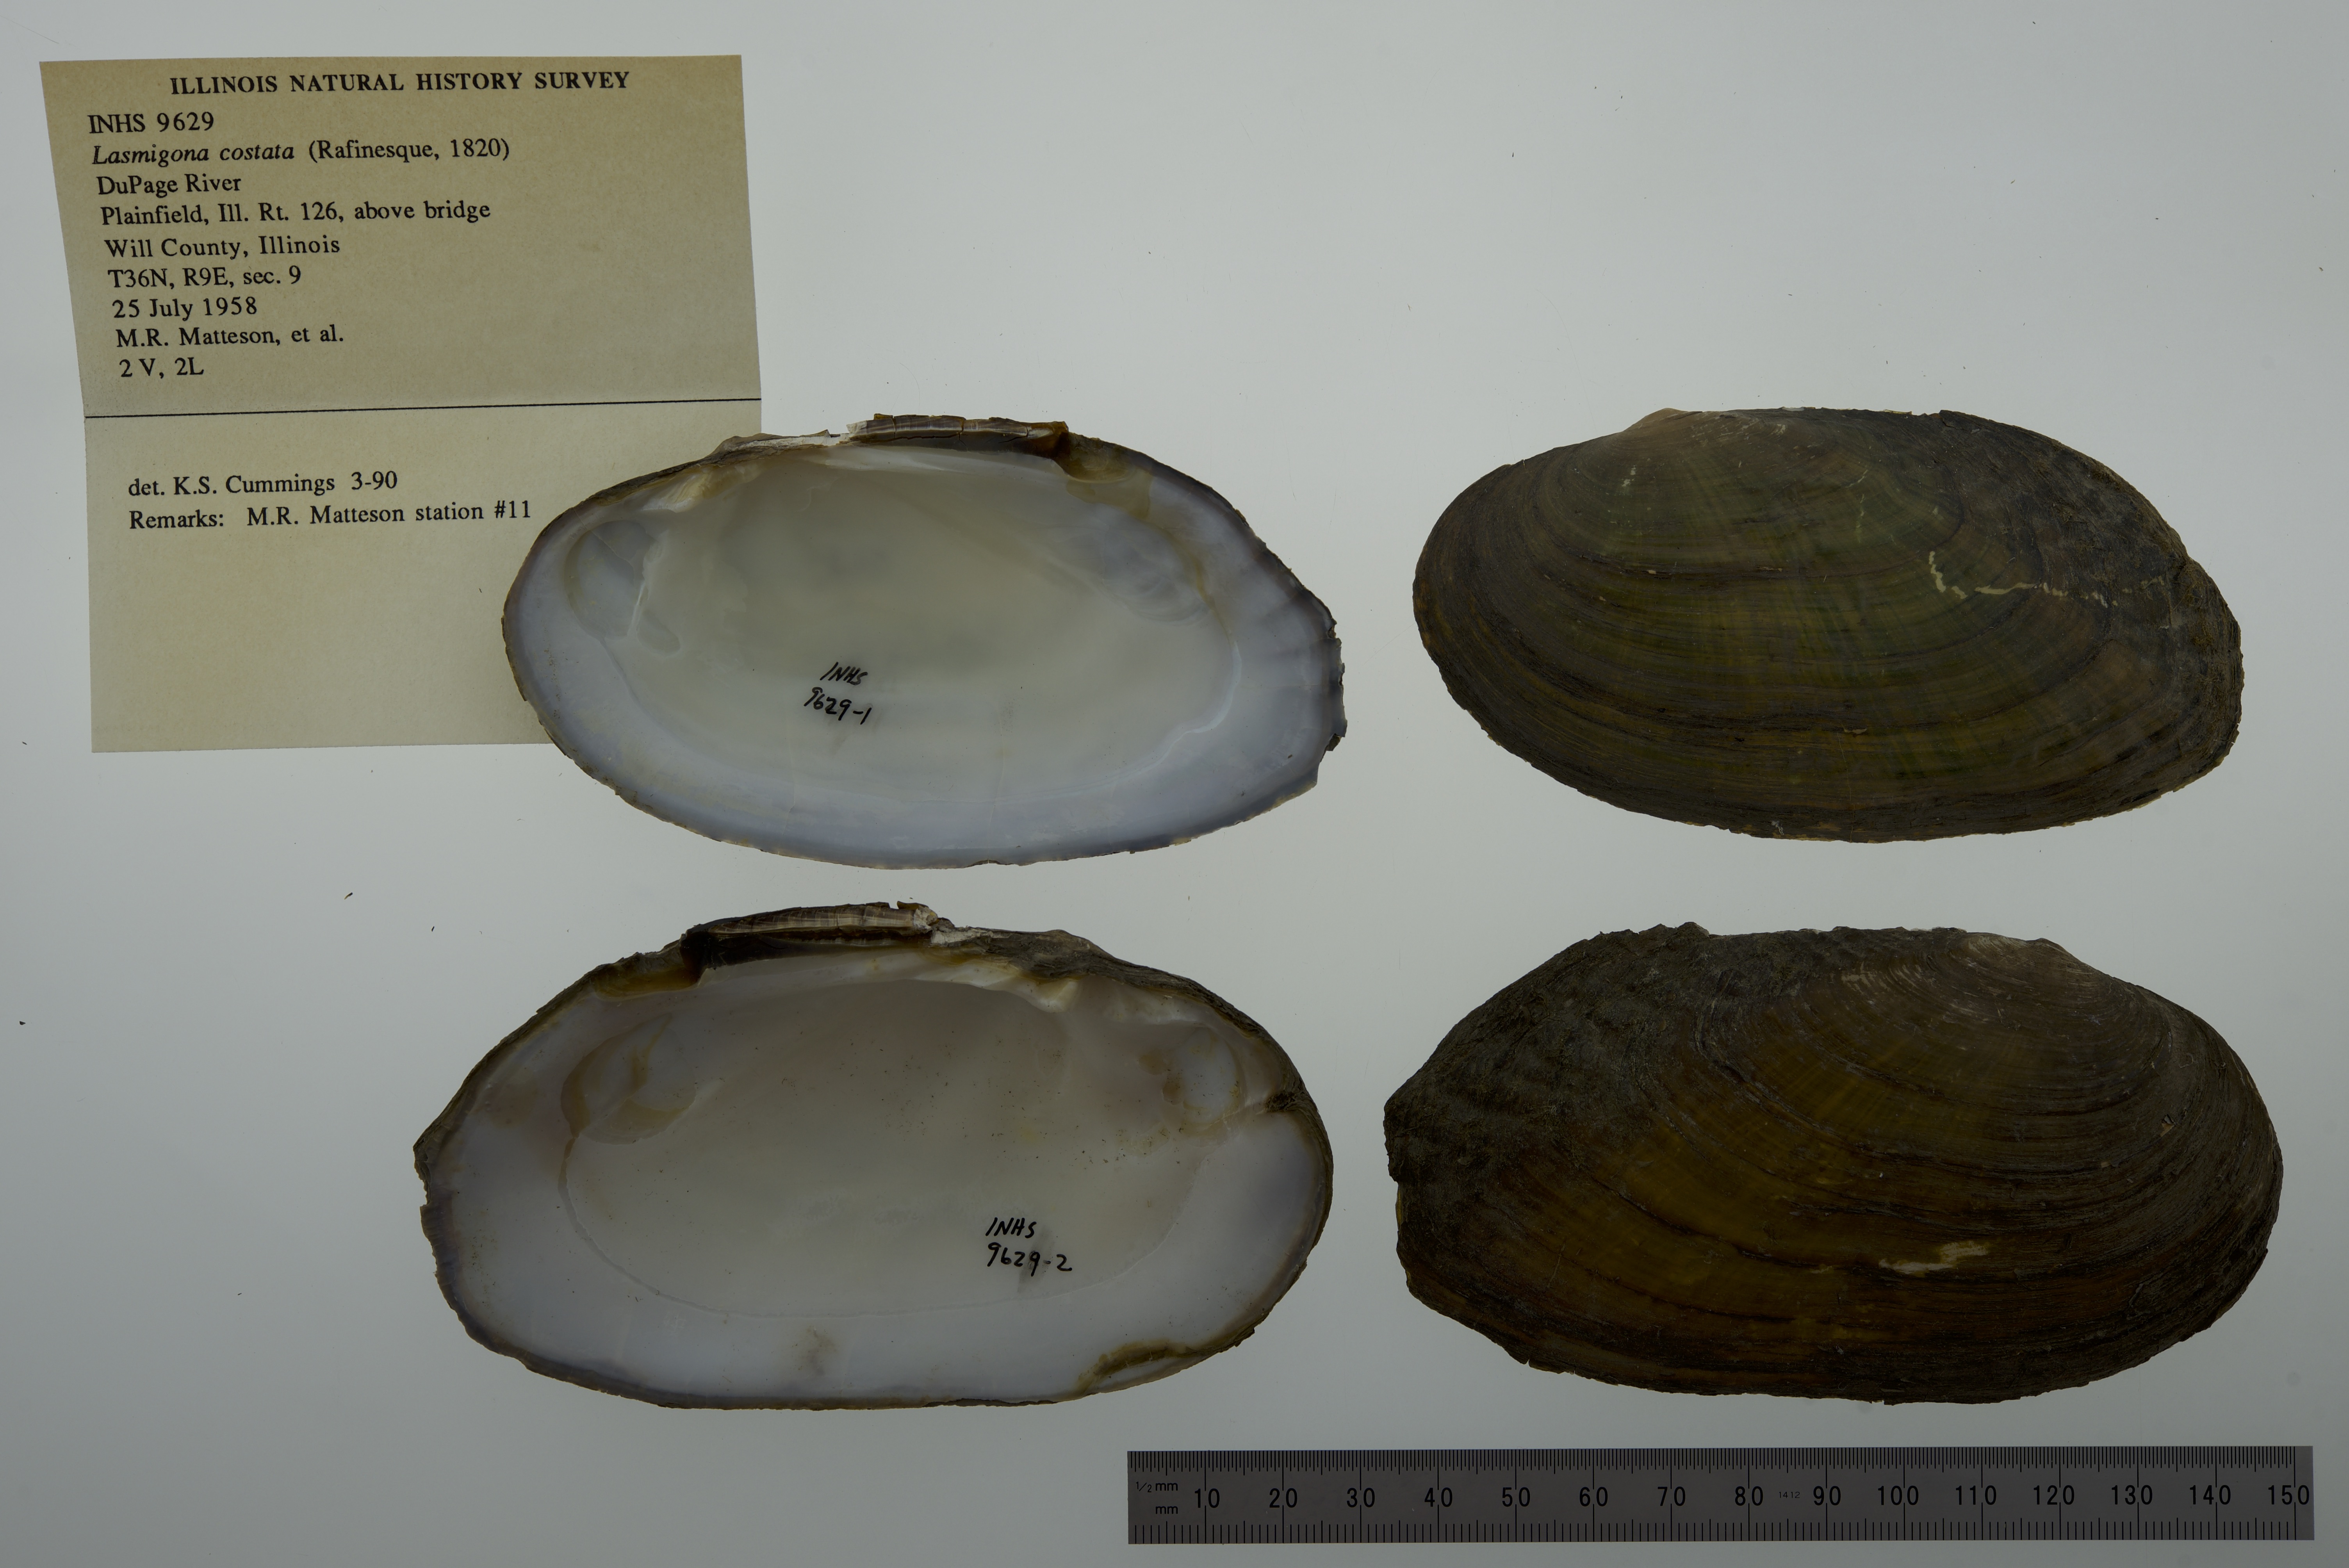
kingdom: Animalia
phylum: Mollusca
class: Bivalvia
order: Unionida
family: Unionidae
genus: Lasmigona
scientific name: Lasmigona costata
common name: Flutedshell
